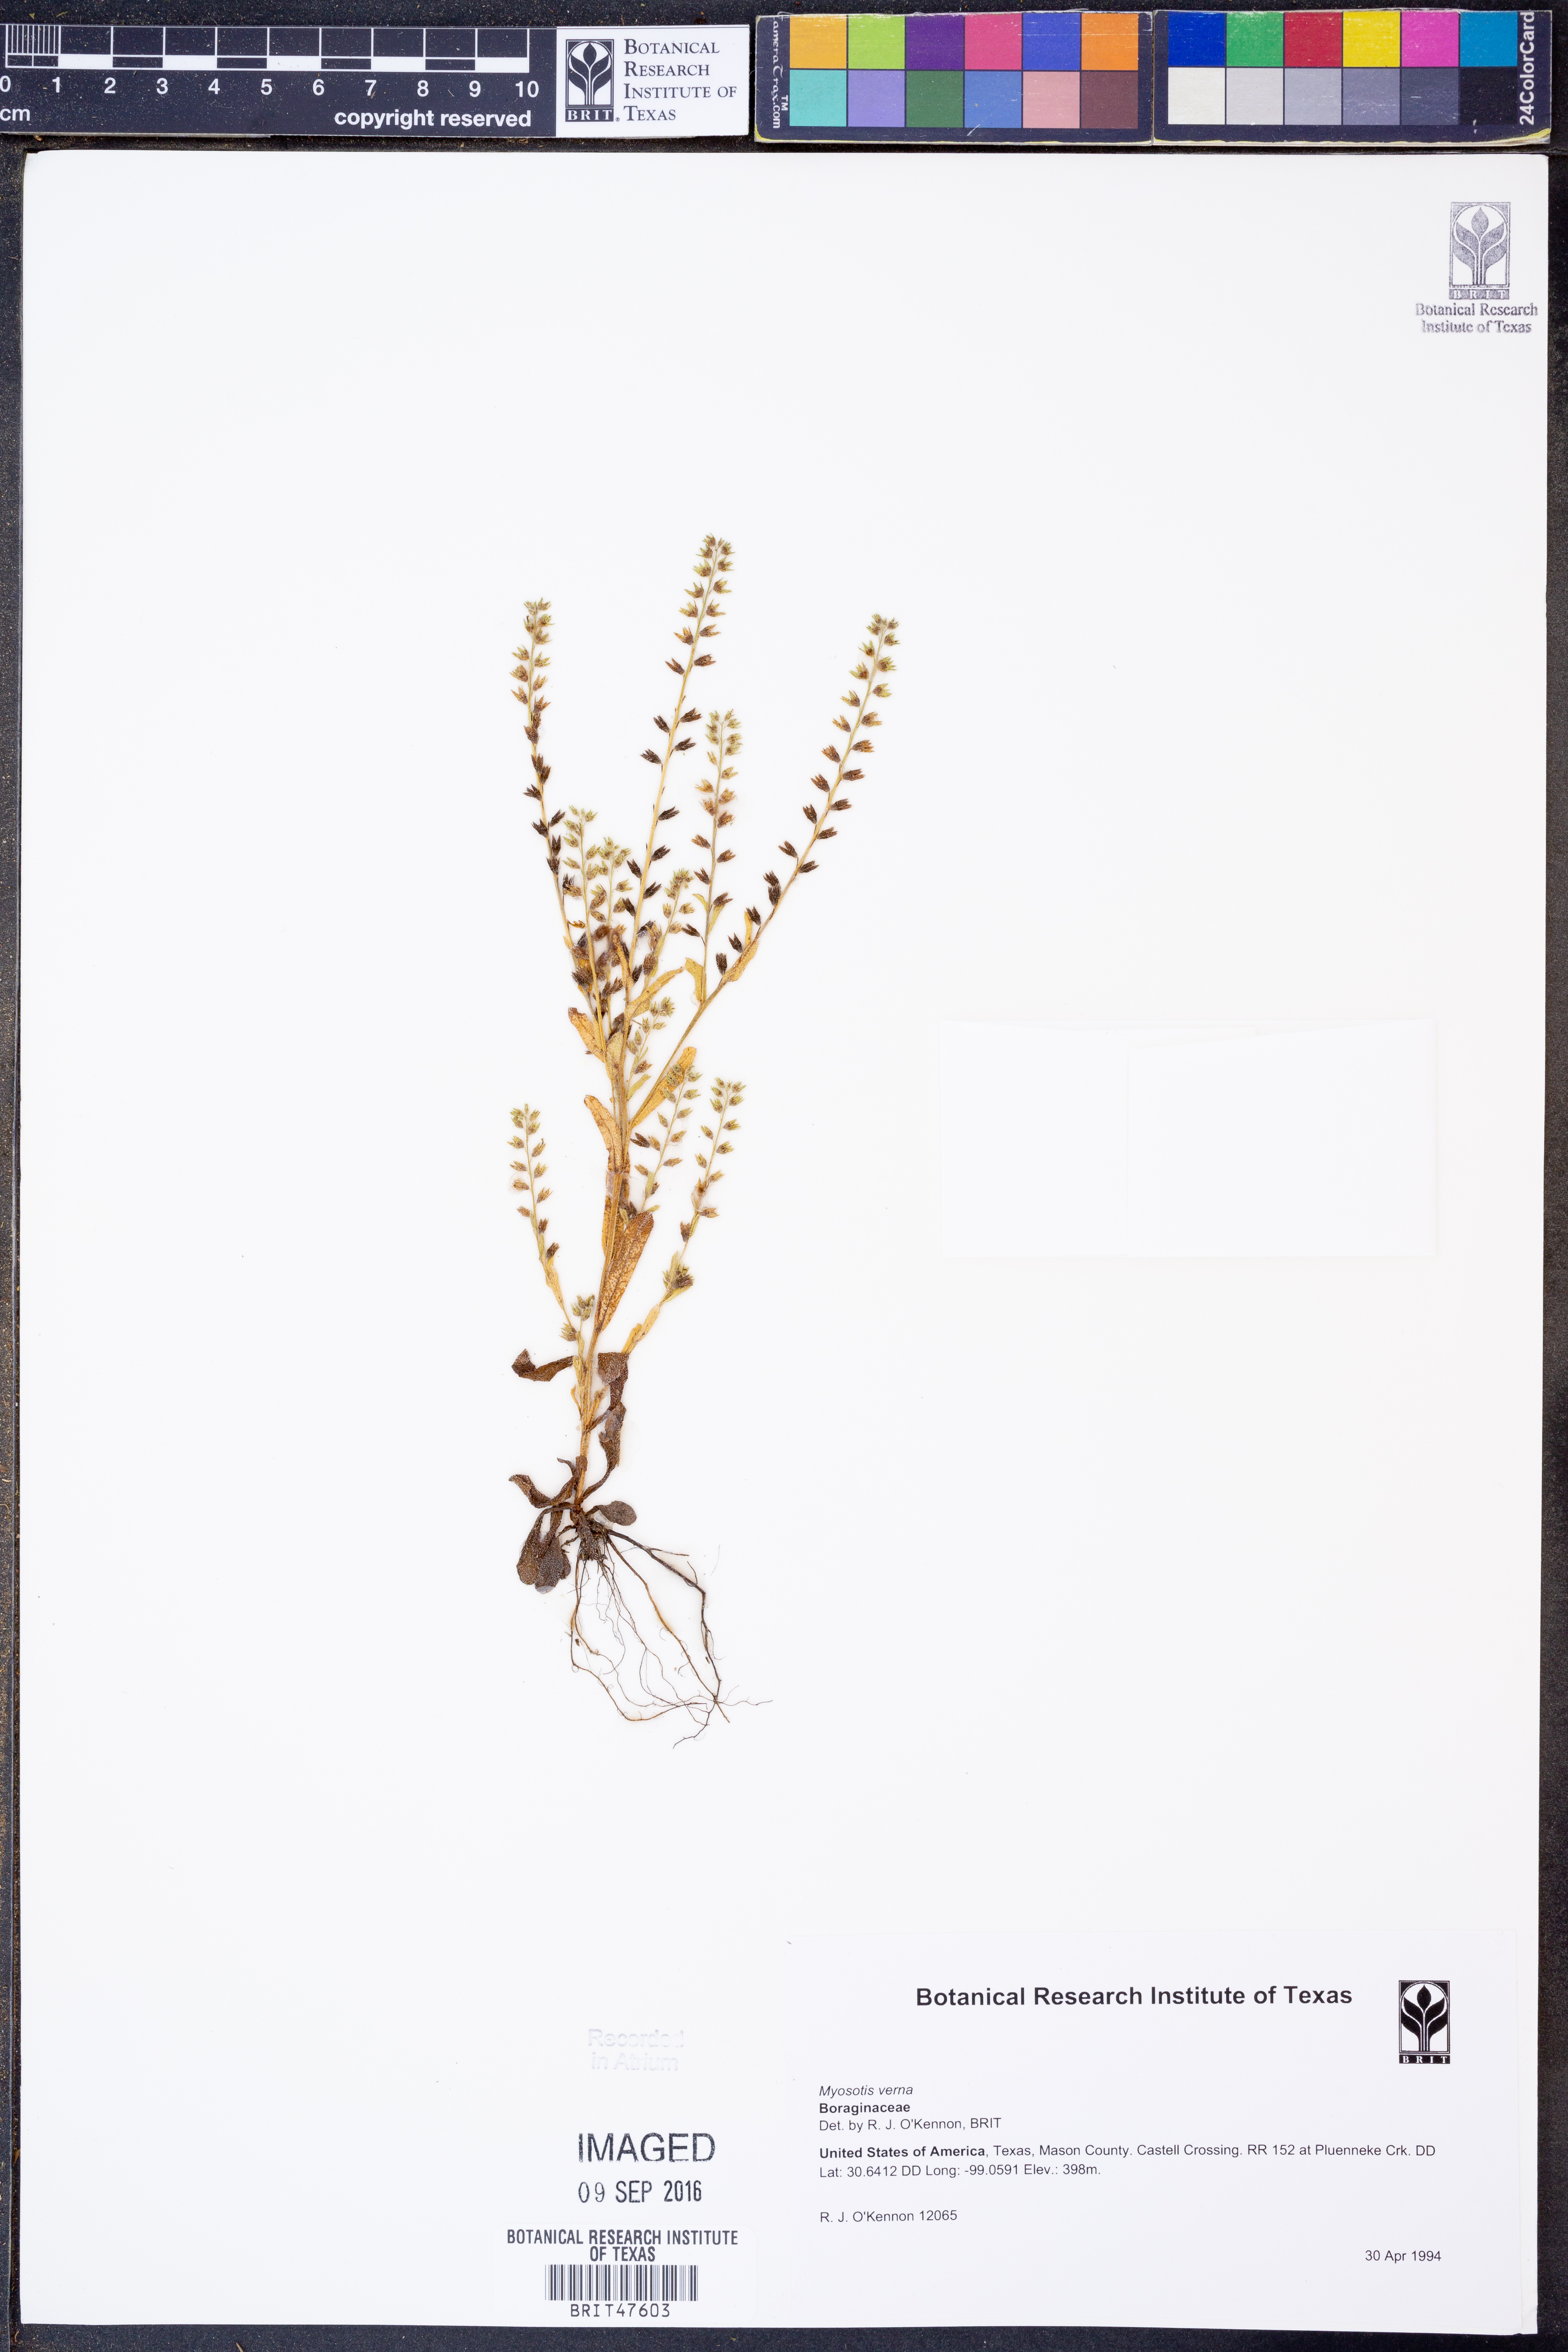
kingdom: Plantae
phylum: Tracheophyta
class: Magnoliopsida
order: Boraginales
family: Boraginaceae
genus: Myosotis
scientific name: Myosotis verna
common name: Early forget-me-not
